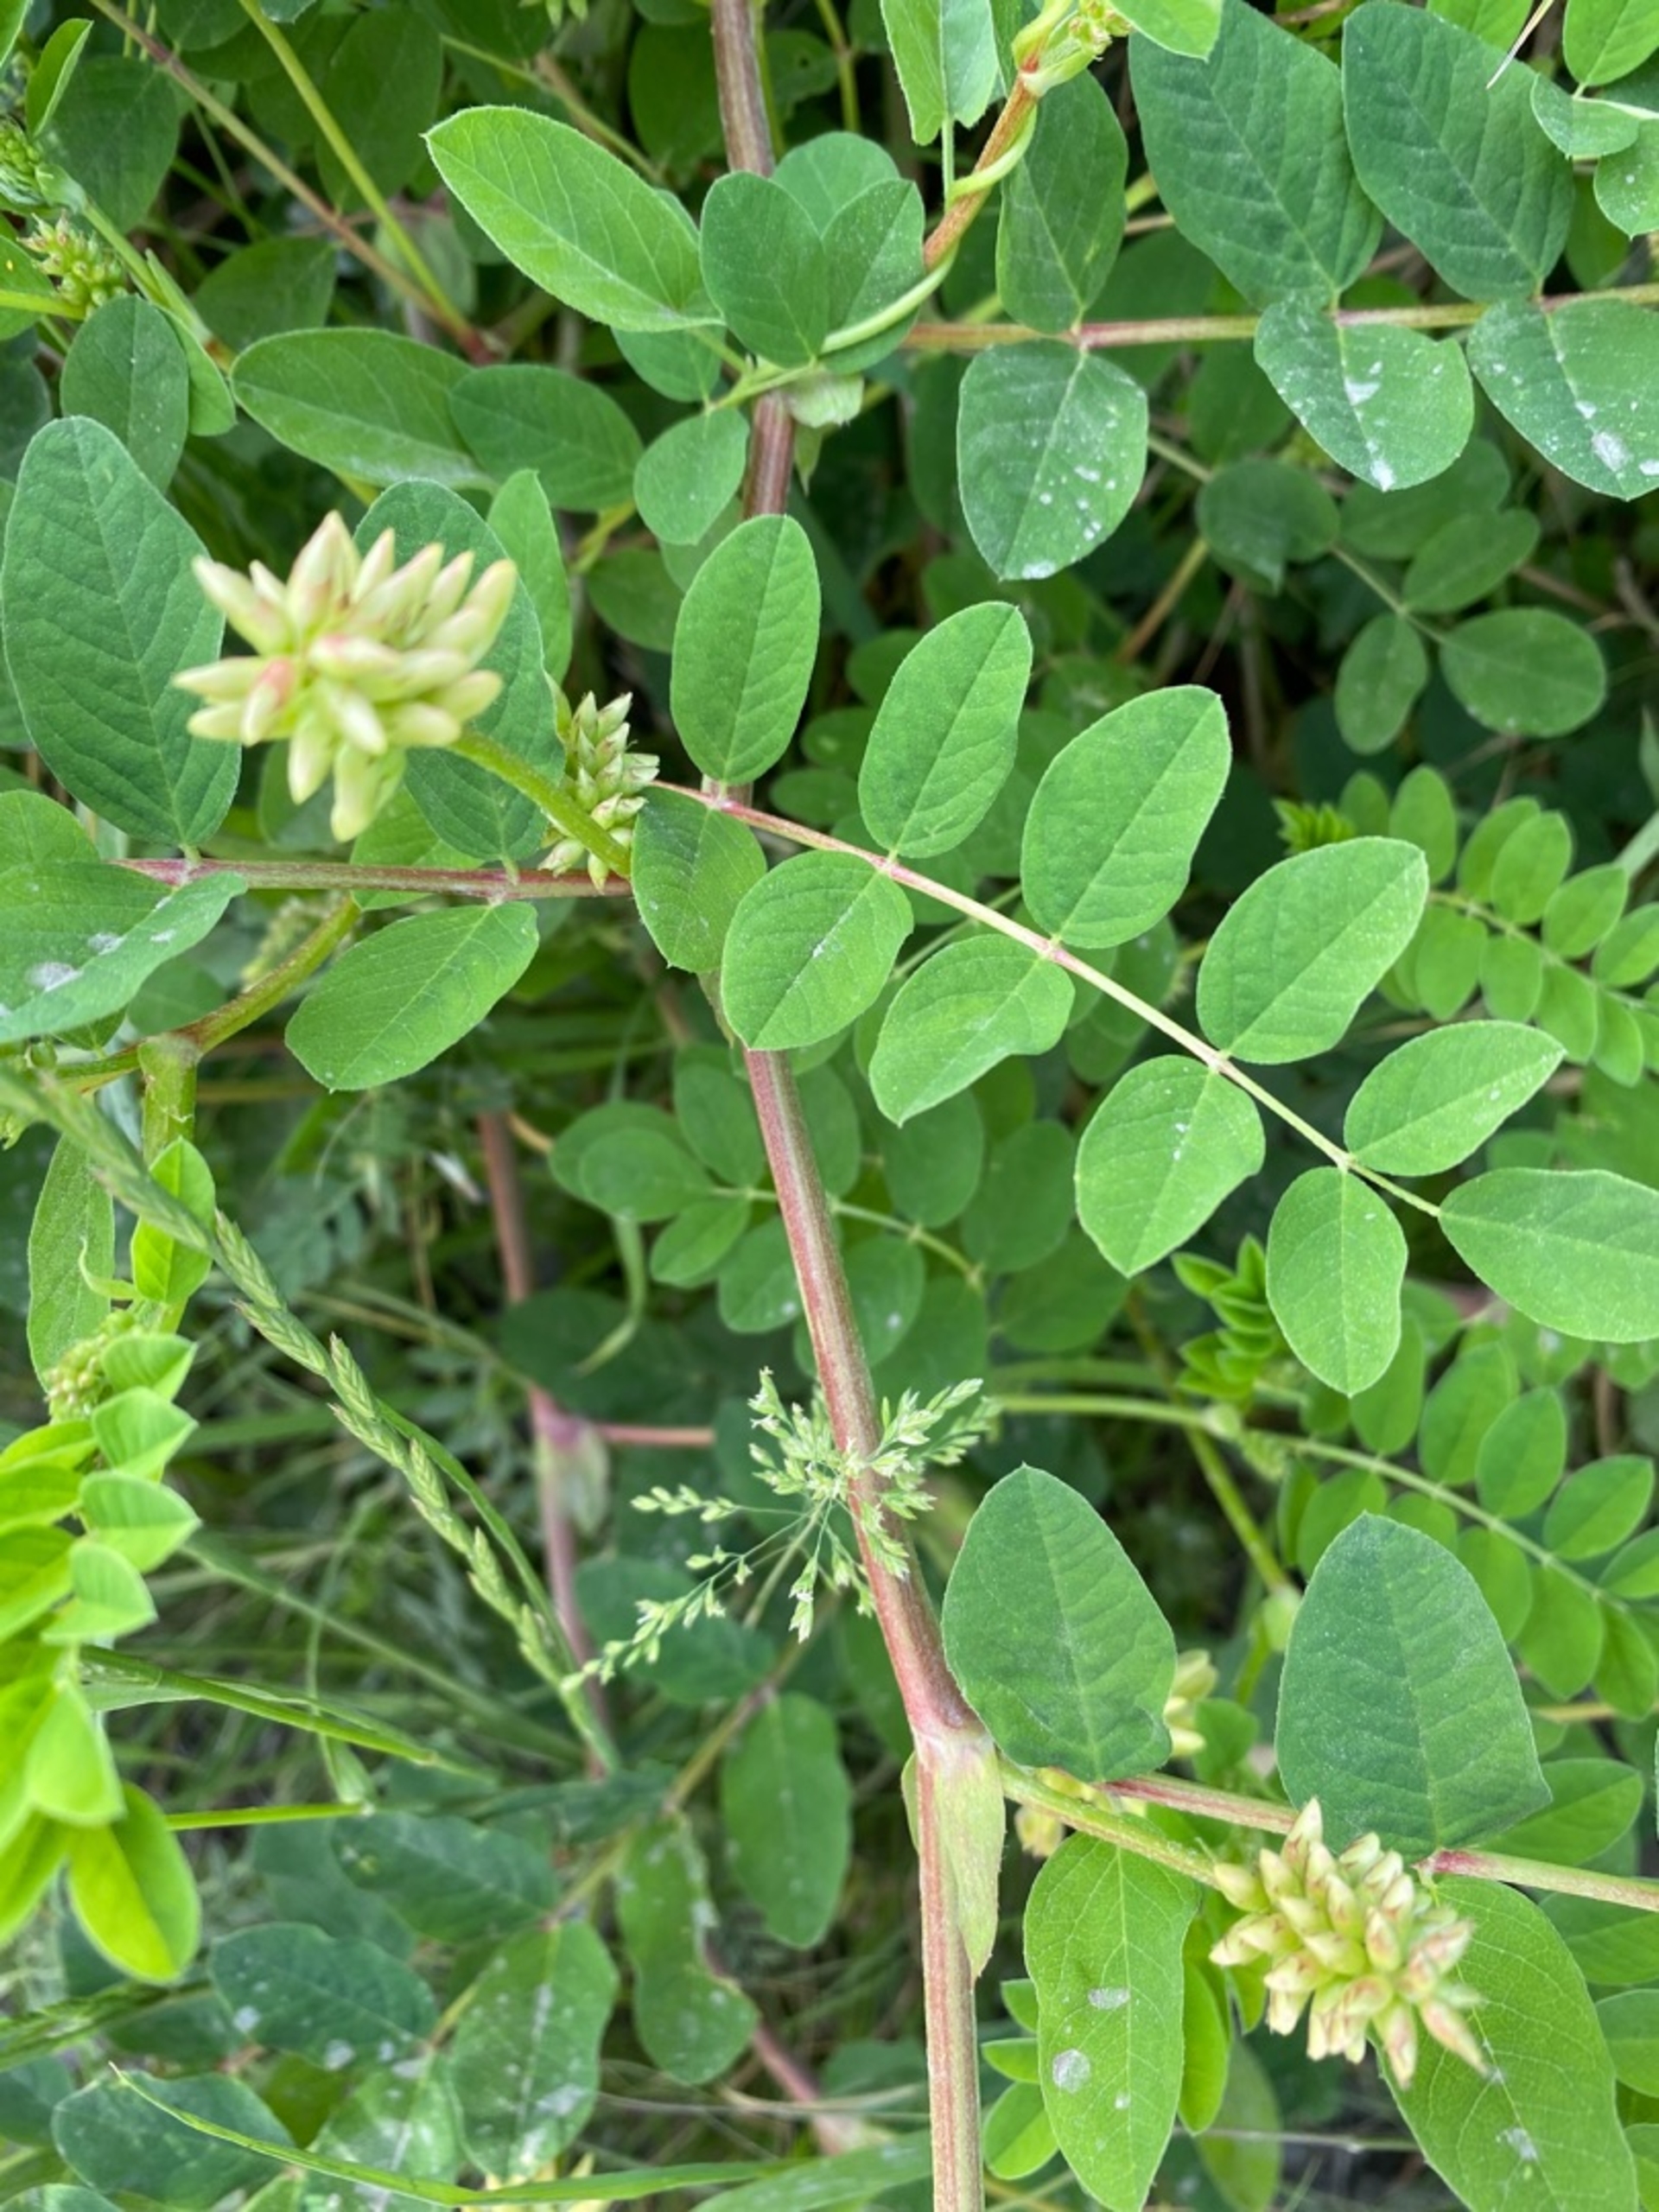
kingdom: Plantae
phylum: Tracheophyta
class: Magnoliopsida
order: Fabales
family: Fabaceae
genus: Astragalus
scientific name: Astragalus glycyphyllos
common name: Sød astragel
